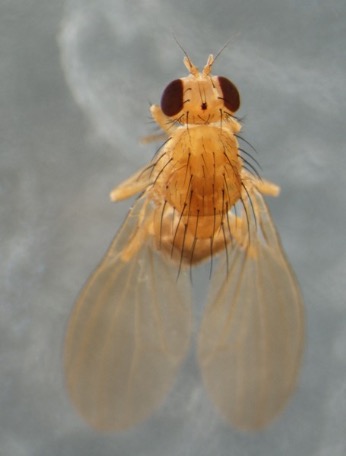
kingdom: Animalia
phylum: Arthropoda
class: Insecta
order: Diptera
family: Lauxaniidae
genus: Meiosimyza
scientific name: Meiosimyza decipiens
